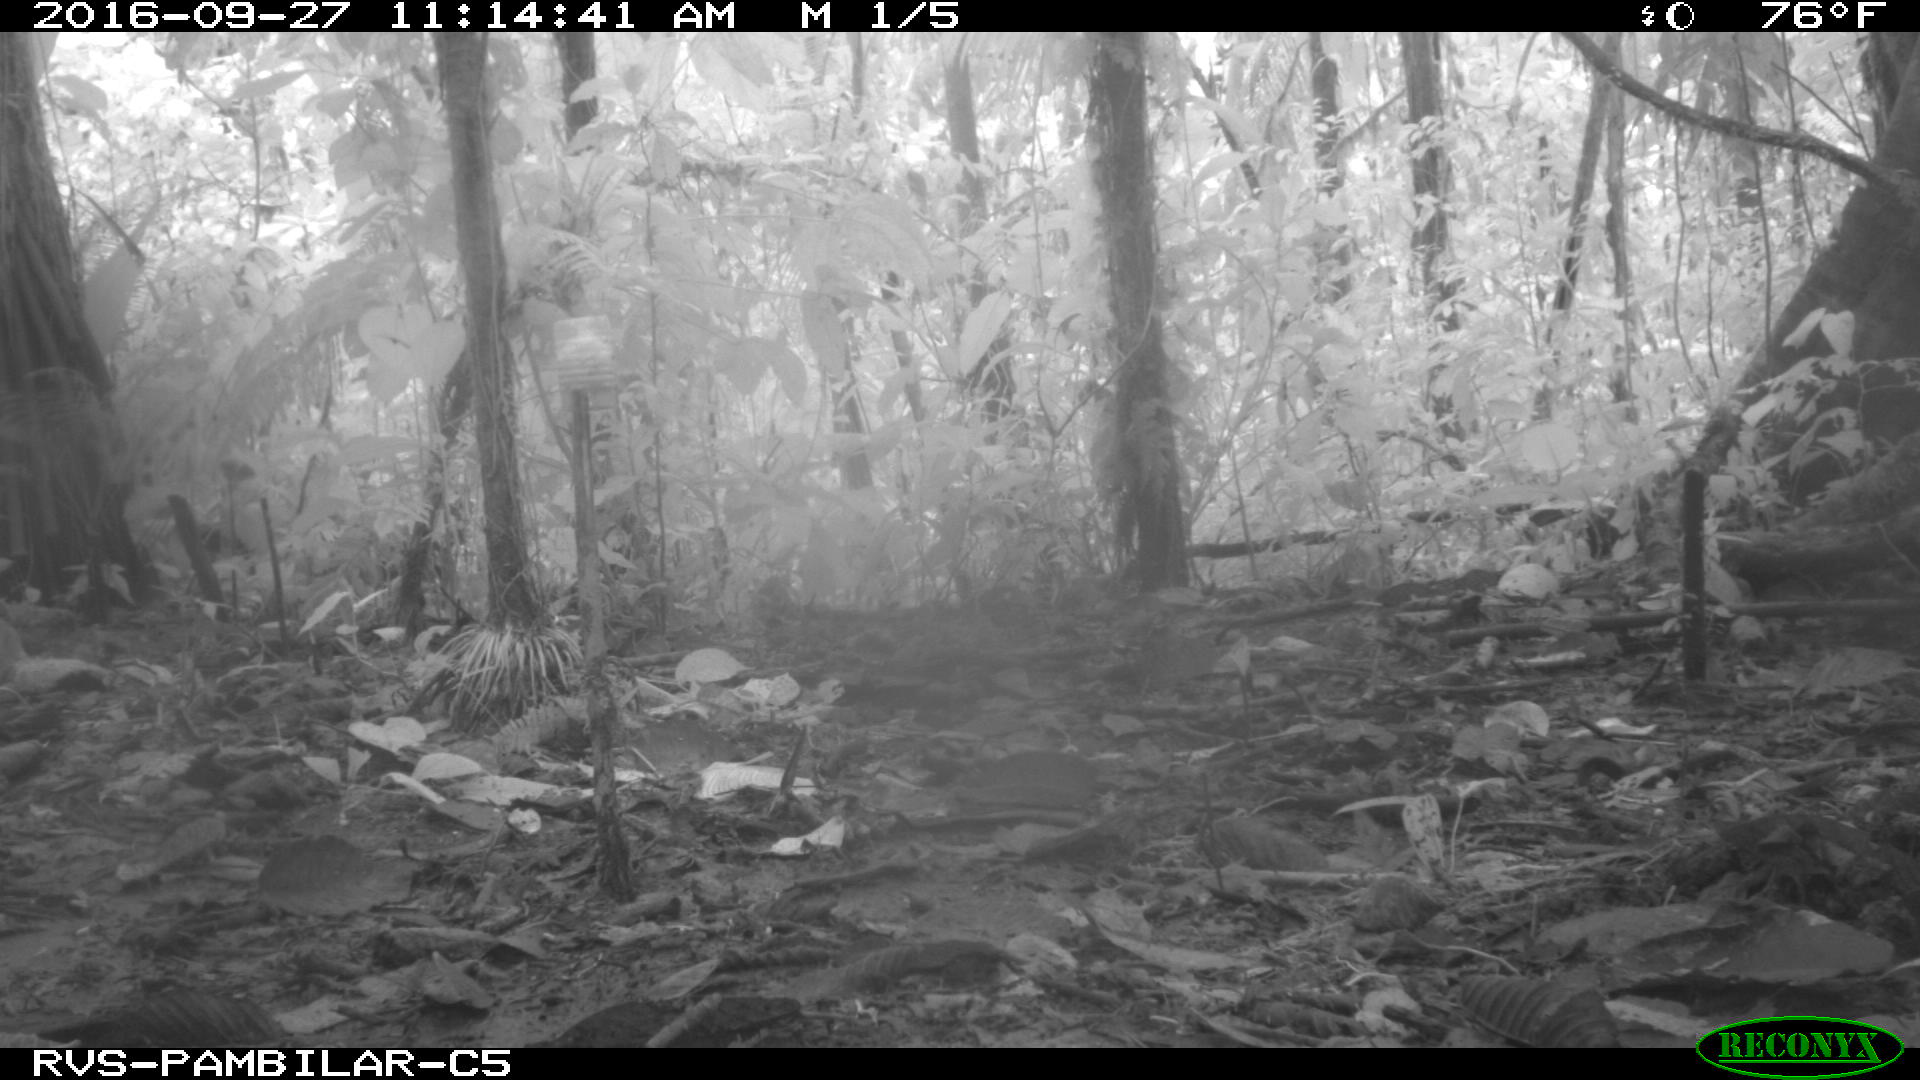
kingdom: Animalia
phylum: Chordata
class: Mammalia
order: Artiodactyla
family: Cervidae
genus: Mazama
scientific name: Mazama americana
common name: Red brocket
